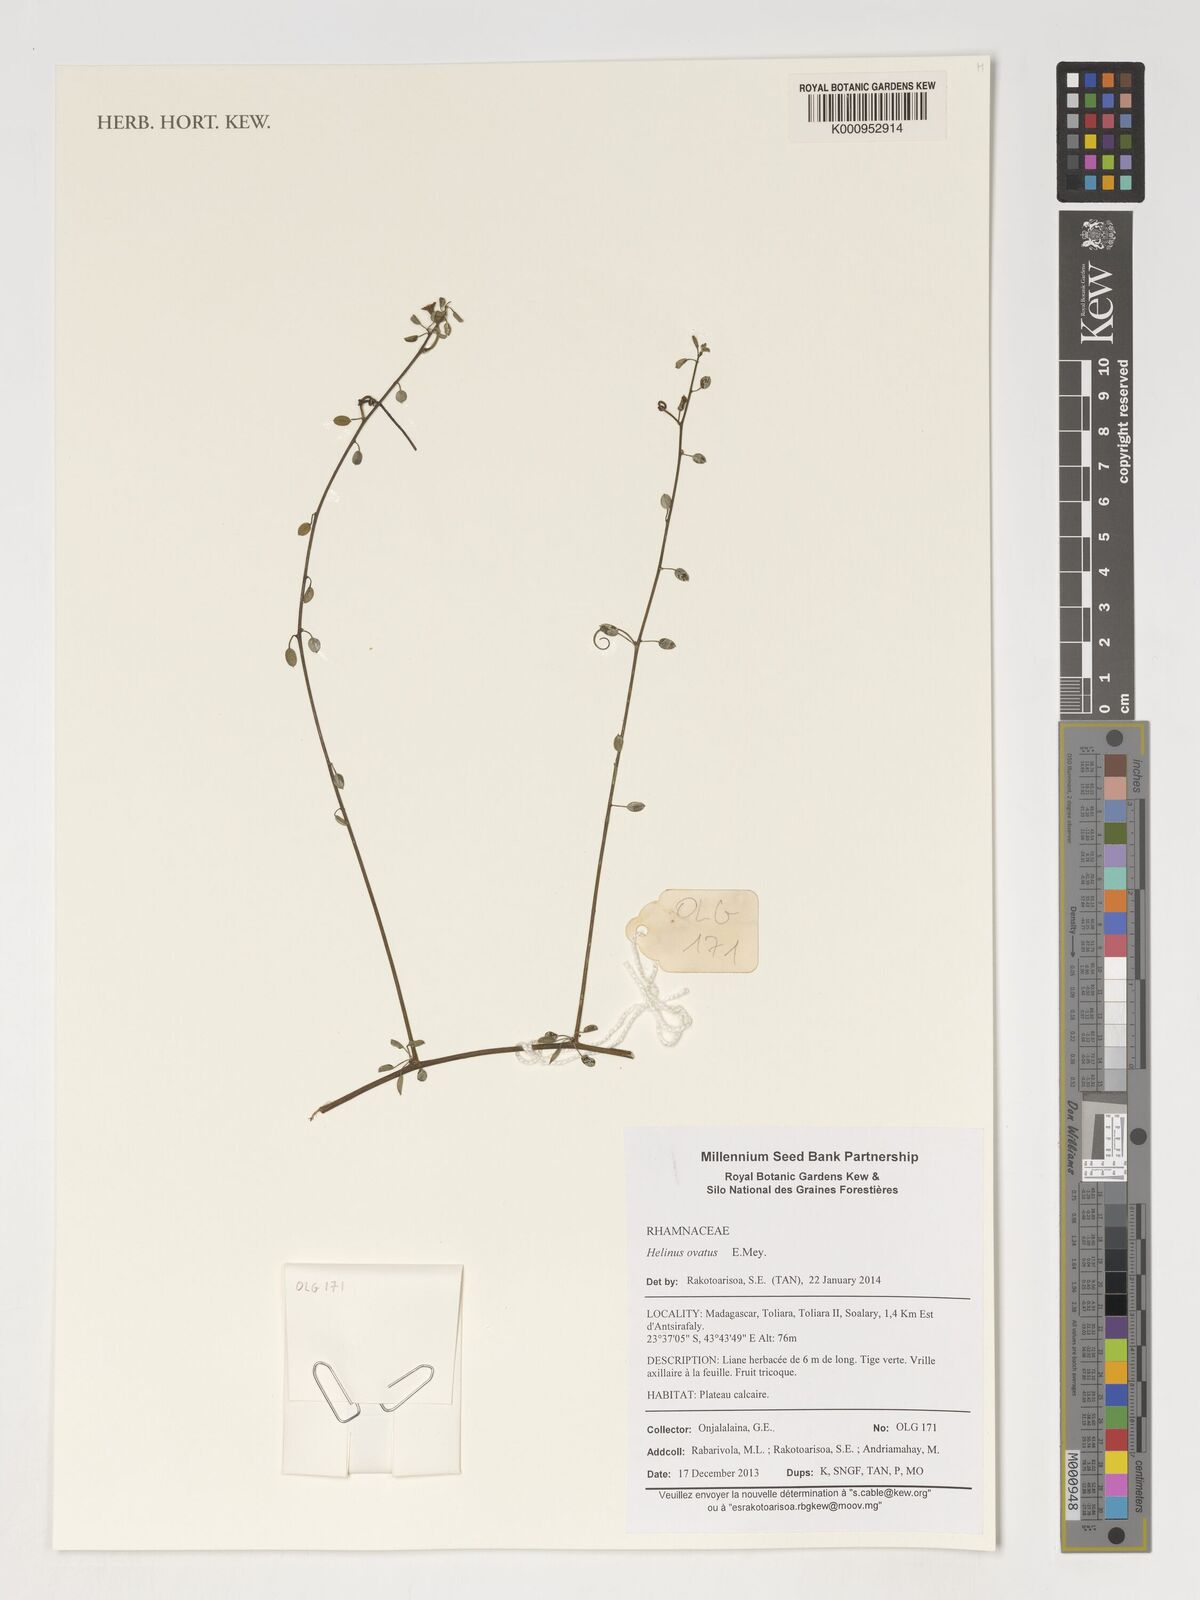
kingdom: Plantae
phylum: Tracheophyta
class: Magnoliopsida
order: Rosales
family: Rhamnaceae
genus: Helinus
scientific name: Helinus
